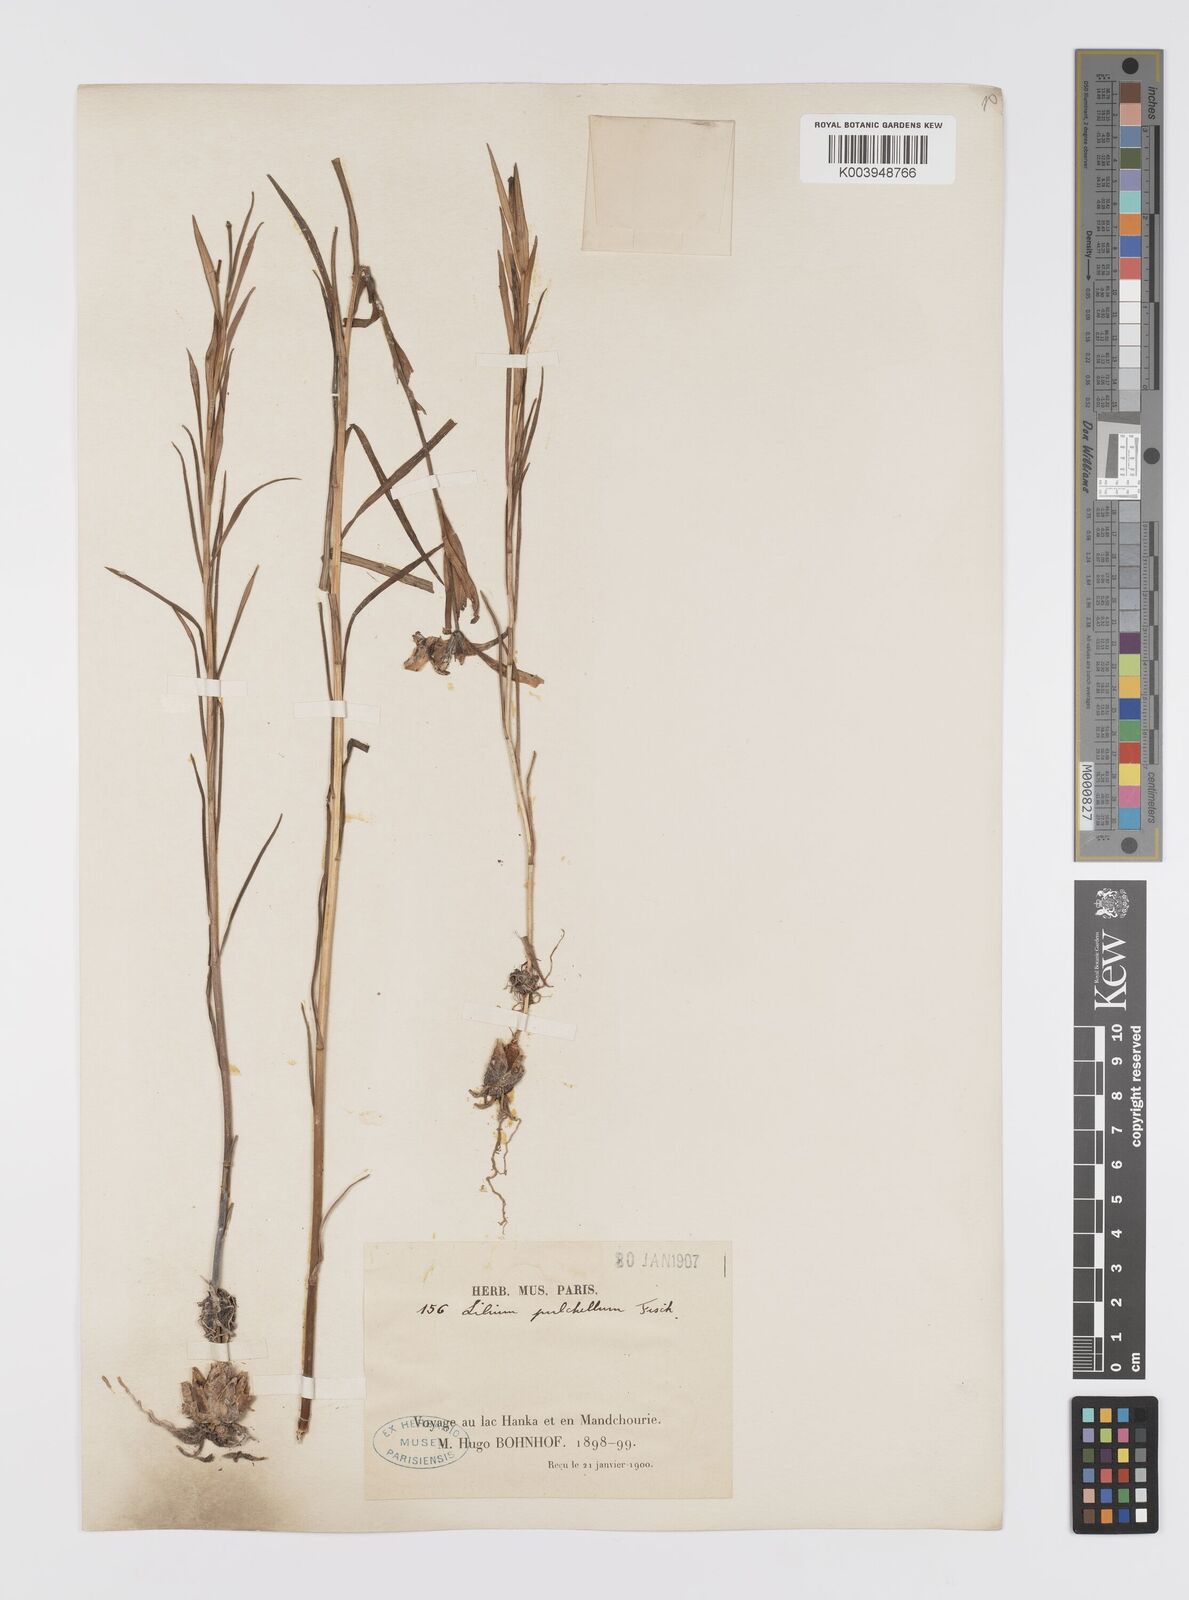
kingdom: Plantae
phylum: Tracheophyta
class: Liliopsida
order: Liliales
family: Liliaceae
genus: Lilium
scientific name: Lilium concolor
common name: Morning-star lily
